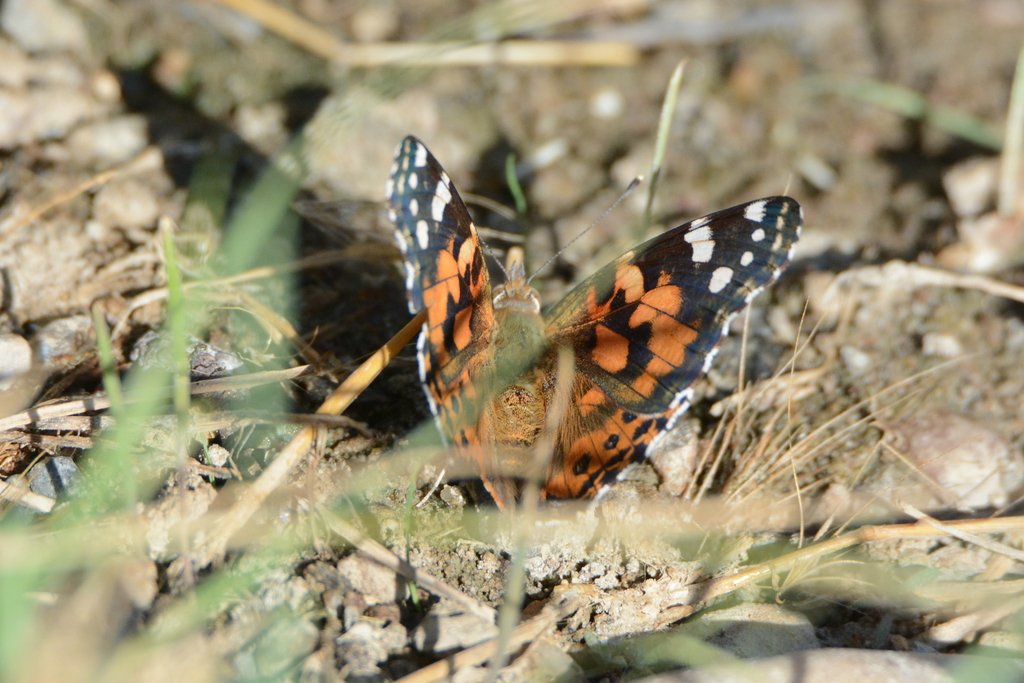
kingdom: Animalia
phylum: Arthropoda
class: Insecta
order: Lepidoptera
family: Nymphalidae
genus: Vanessa
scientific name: Vanessa cardui
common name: Painted Lady
